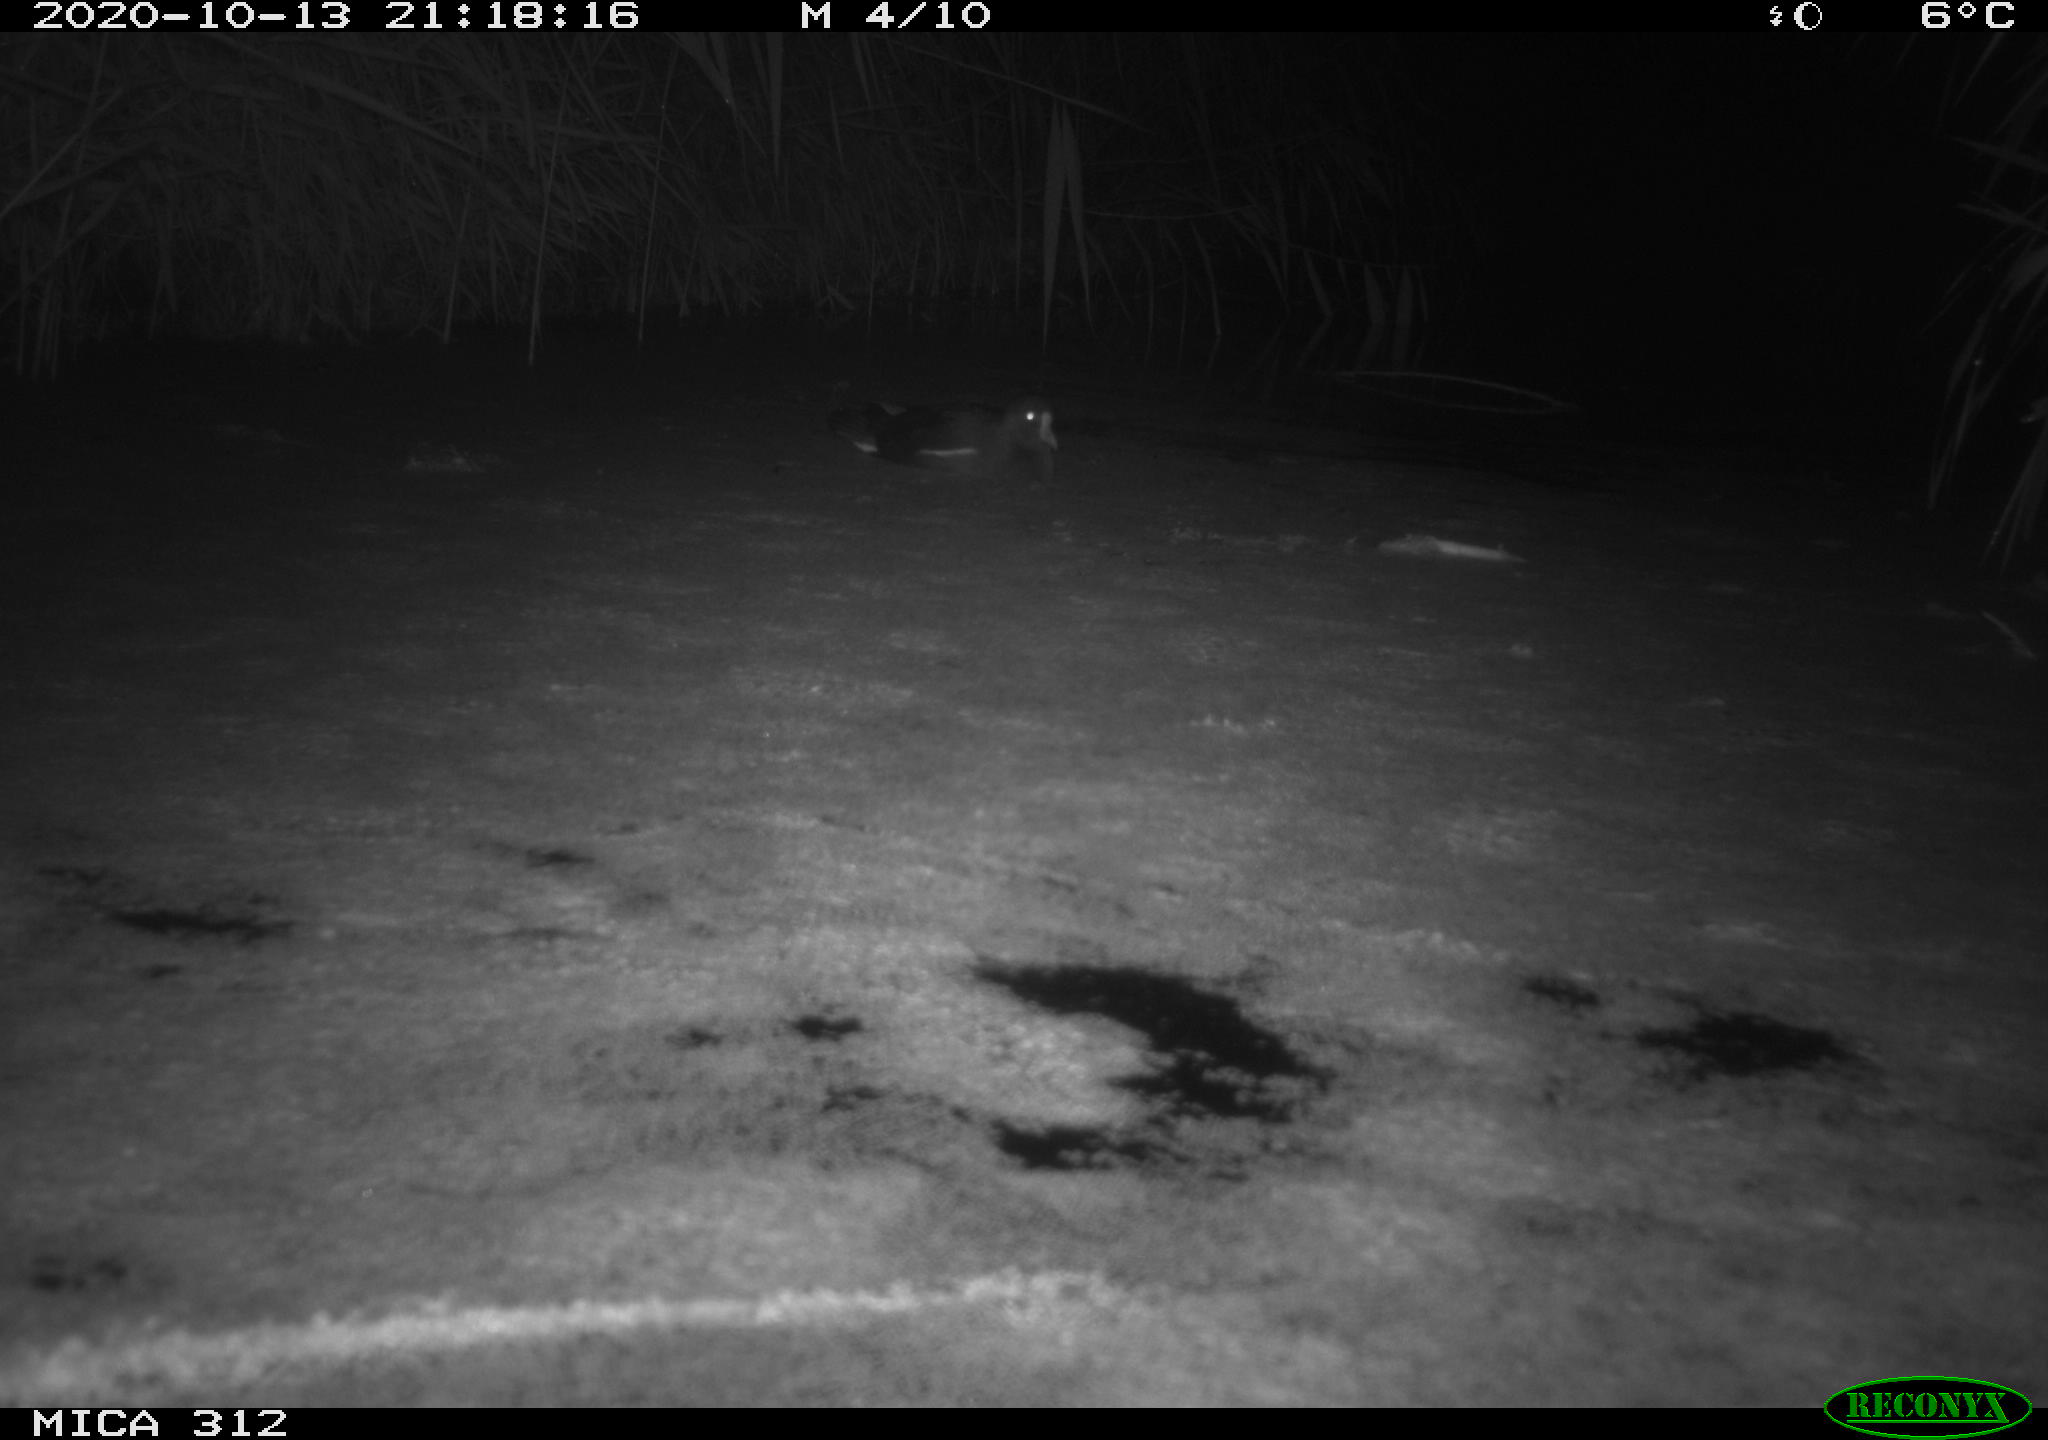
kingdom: Animalia
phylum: Chordata
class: Aves
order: Gruiformes
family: Rallidae
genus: Fulica
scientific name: Fulica atra
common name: Eurasian coot
